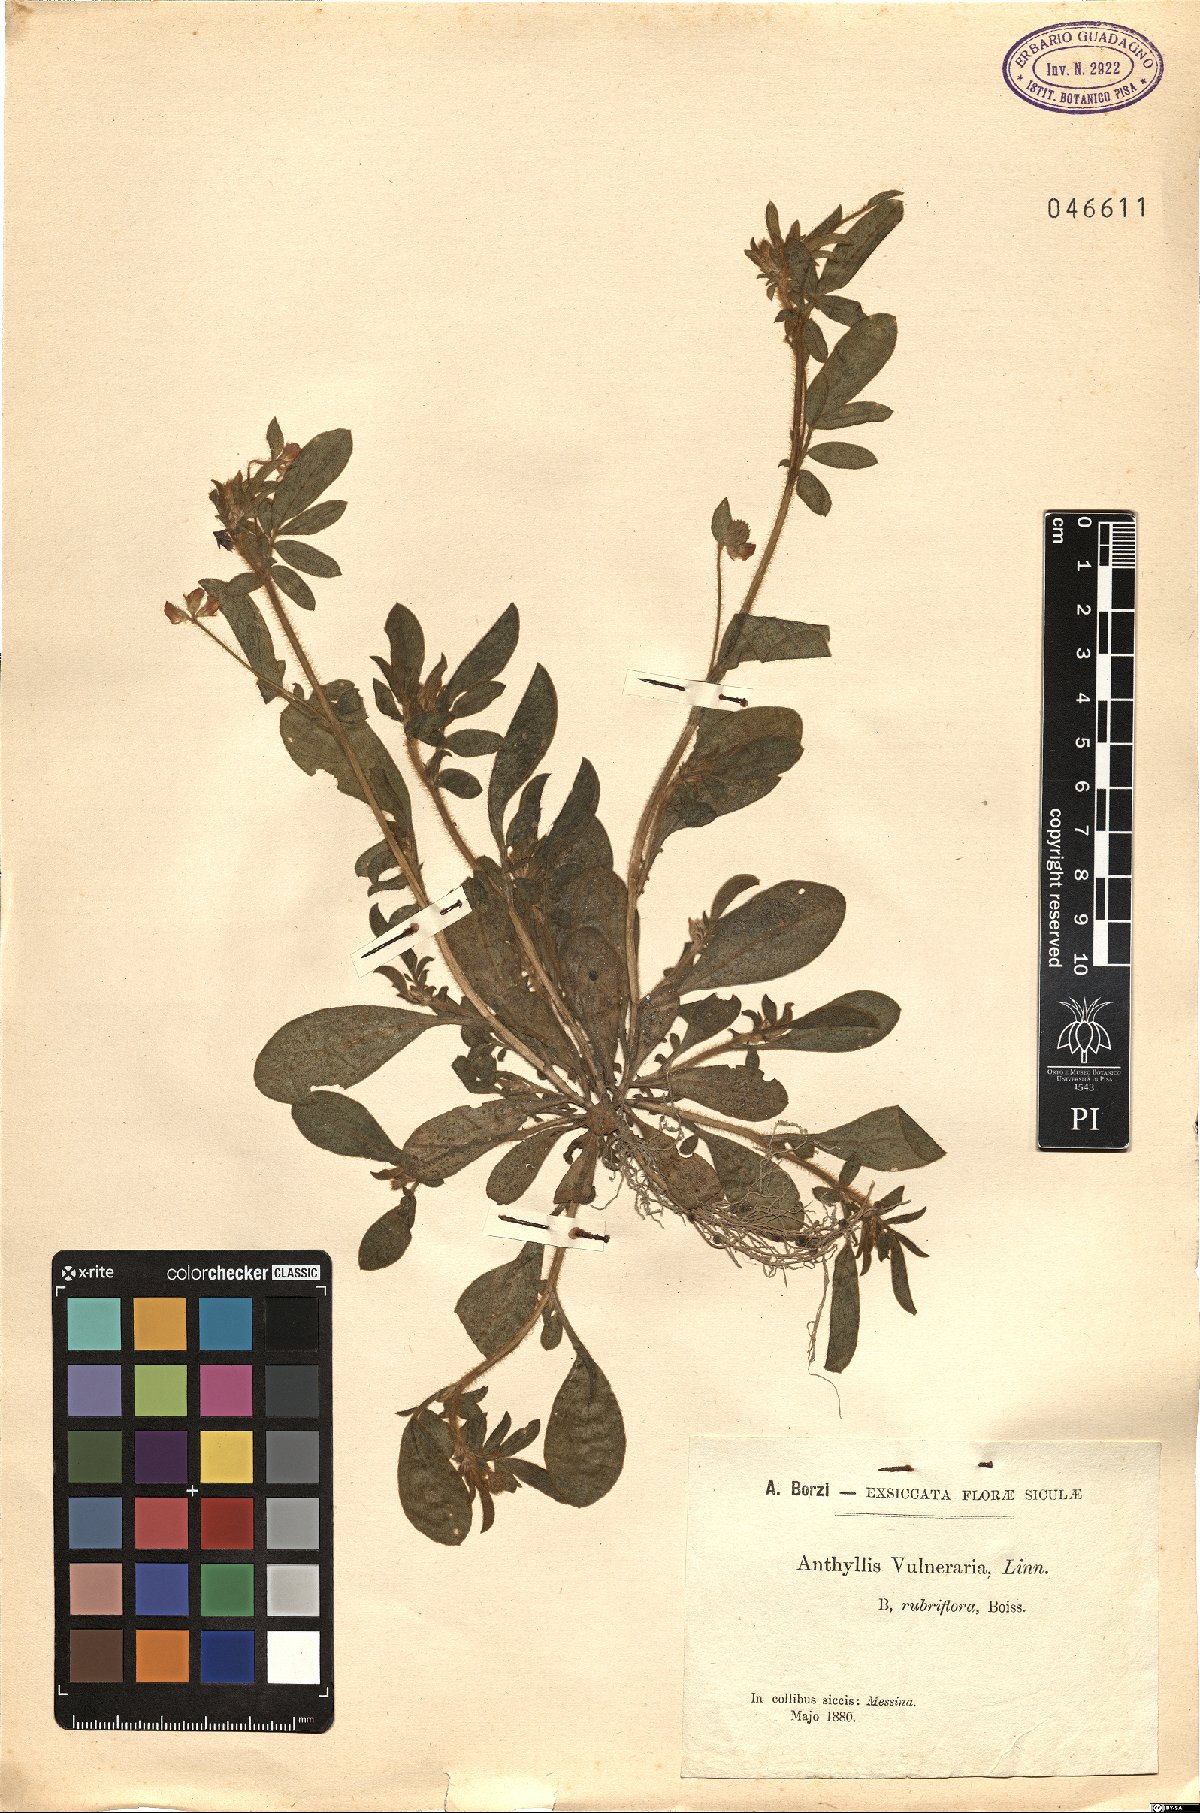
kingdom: Plantae
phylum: Tracheophyta
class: Magnoliopsida
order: Fabales
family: Fabaceae
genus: Anthyllis
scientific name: Anthyllis vulneraria
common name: Kidney vetch
